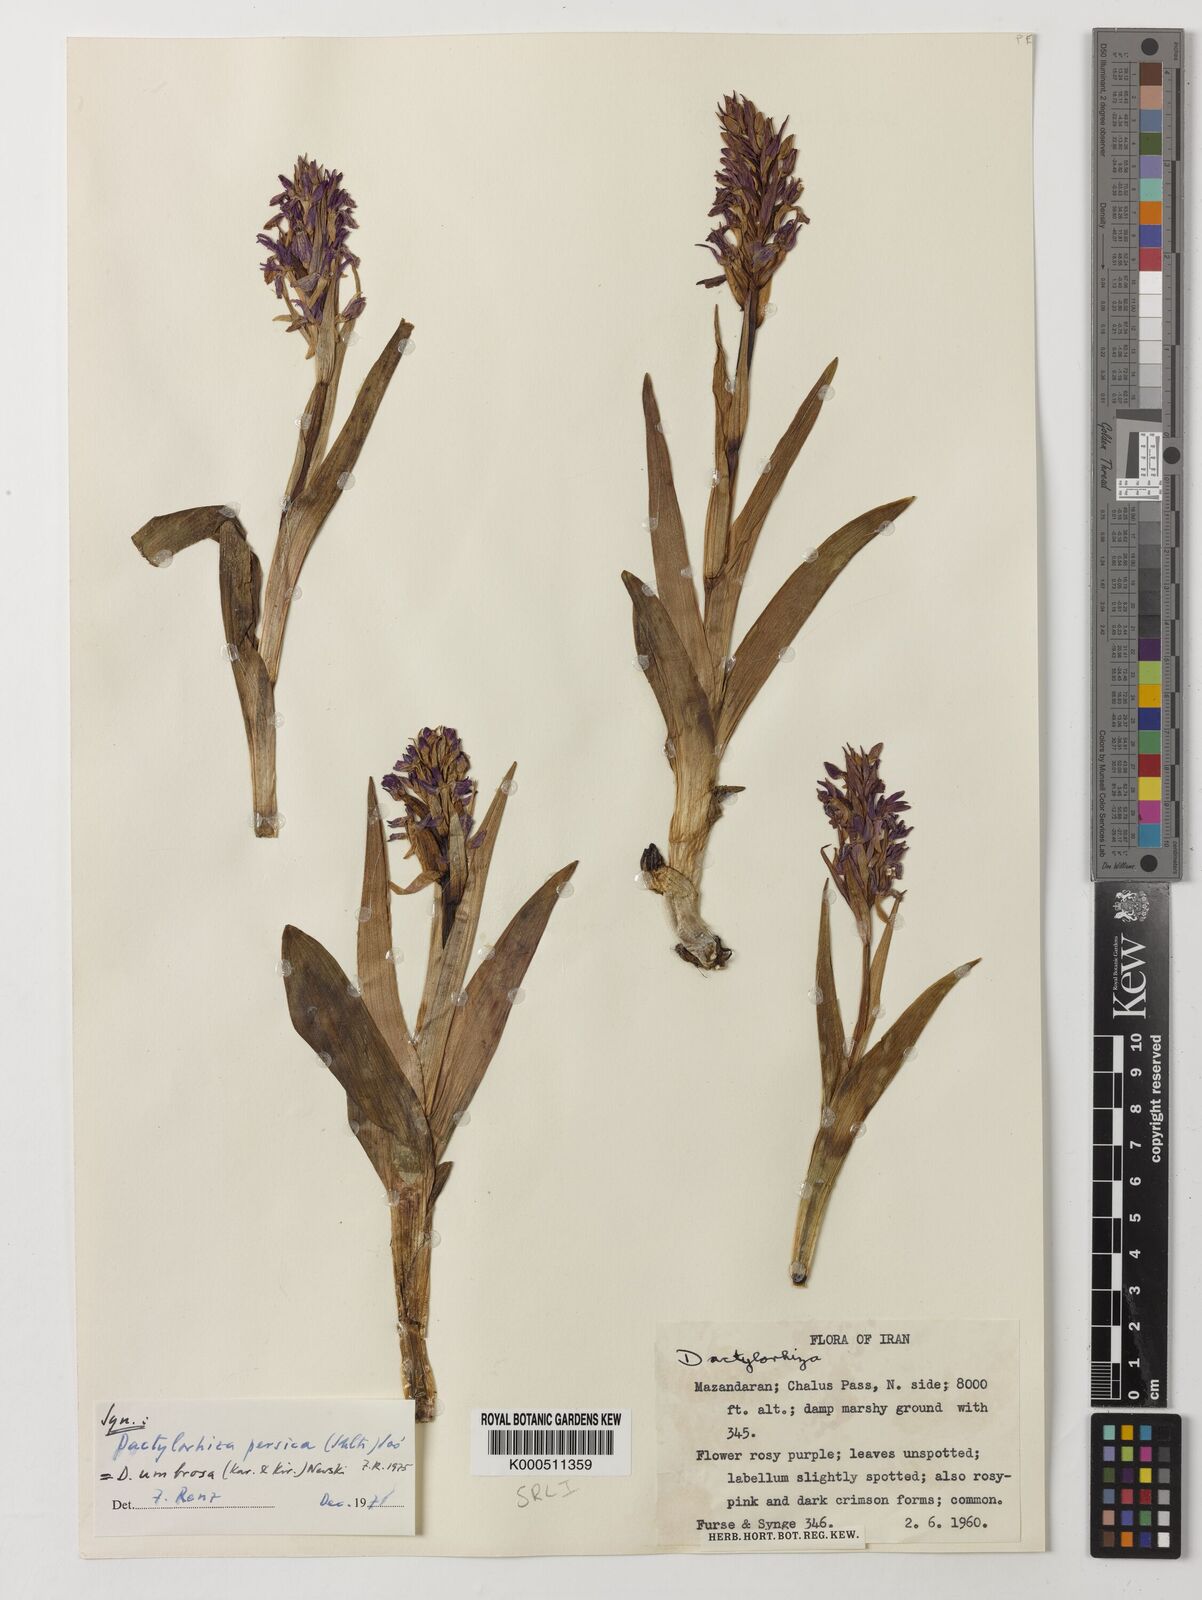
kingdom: Plantae
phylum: Tracheophyta
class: Liliopsida
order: Asparagales
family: Orchidaceae
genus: Dactylorhiza
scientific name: Dactylorhiza
